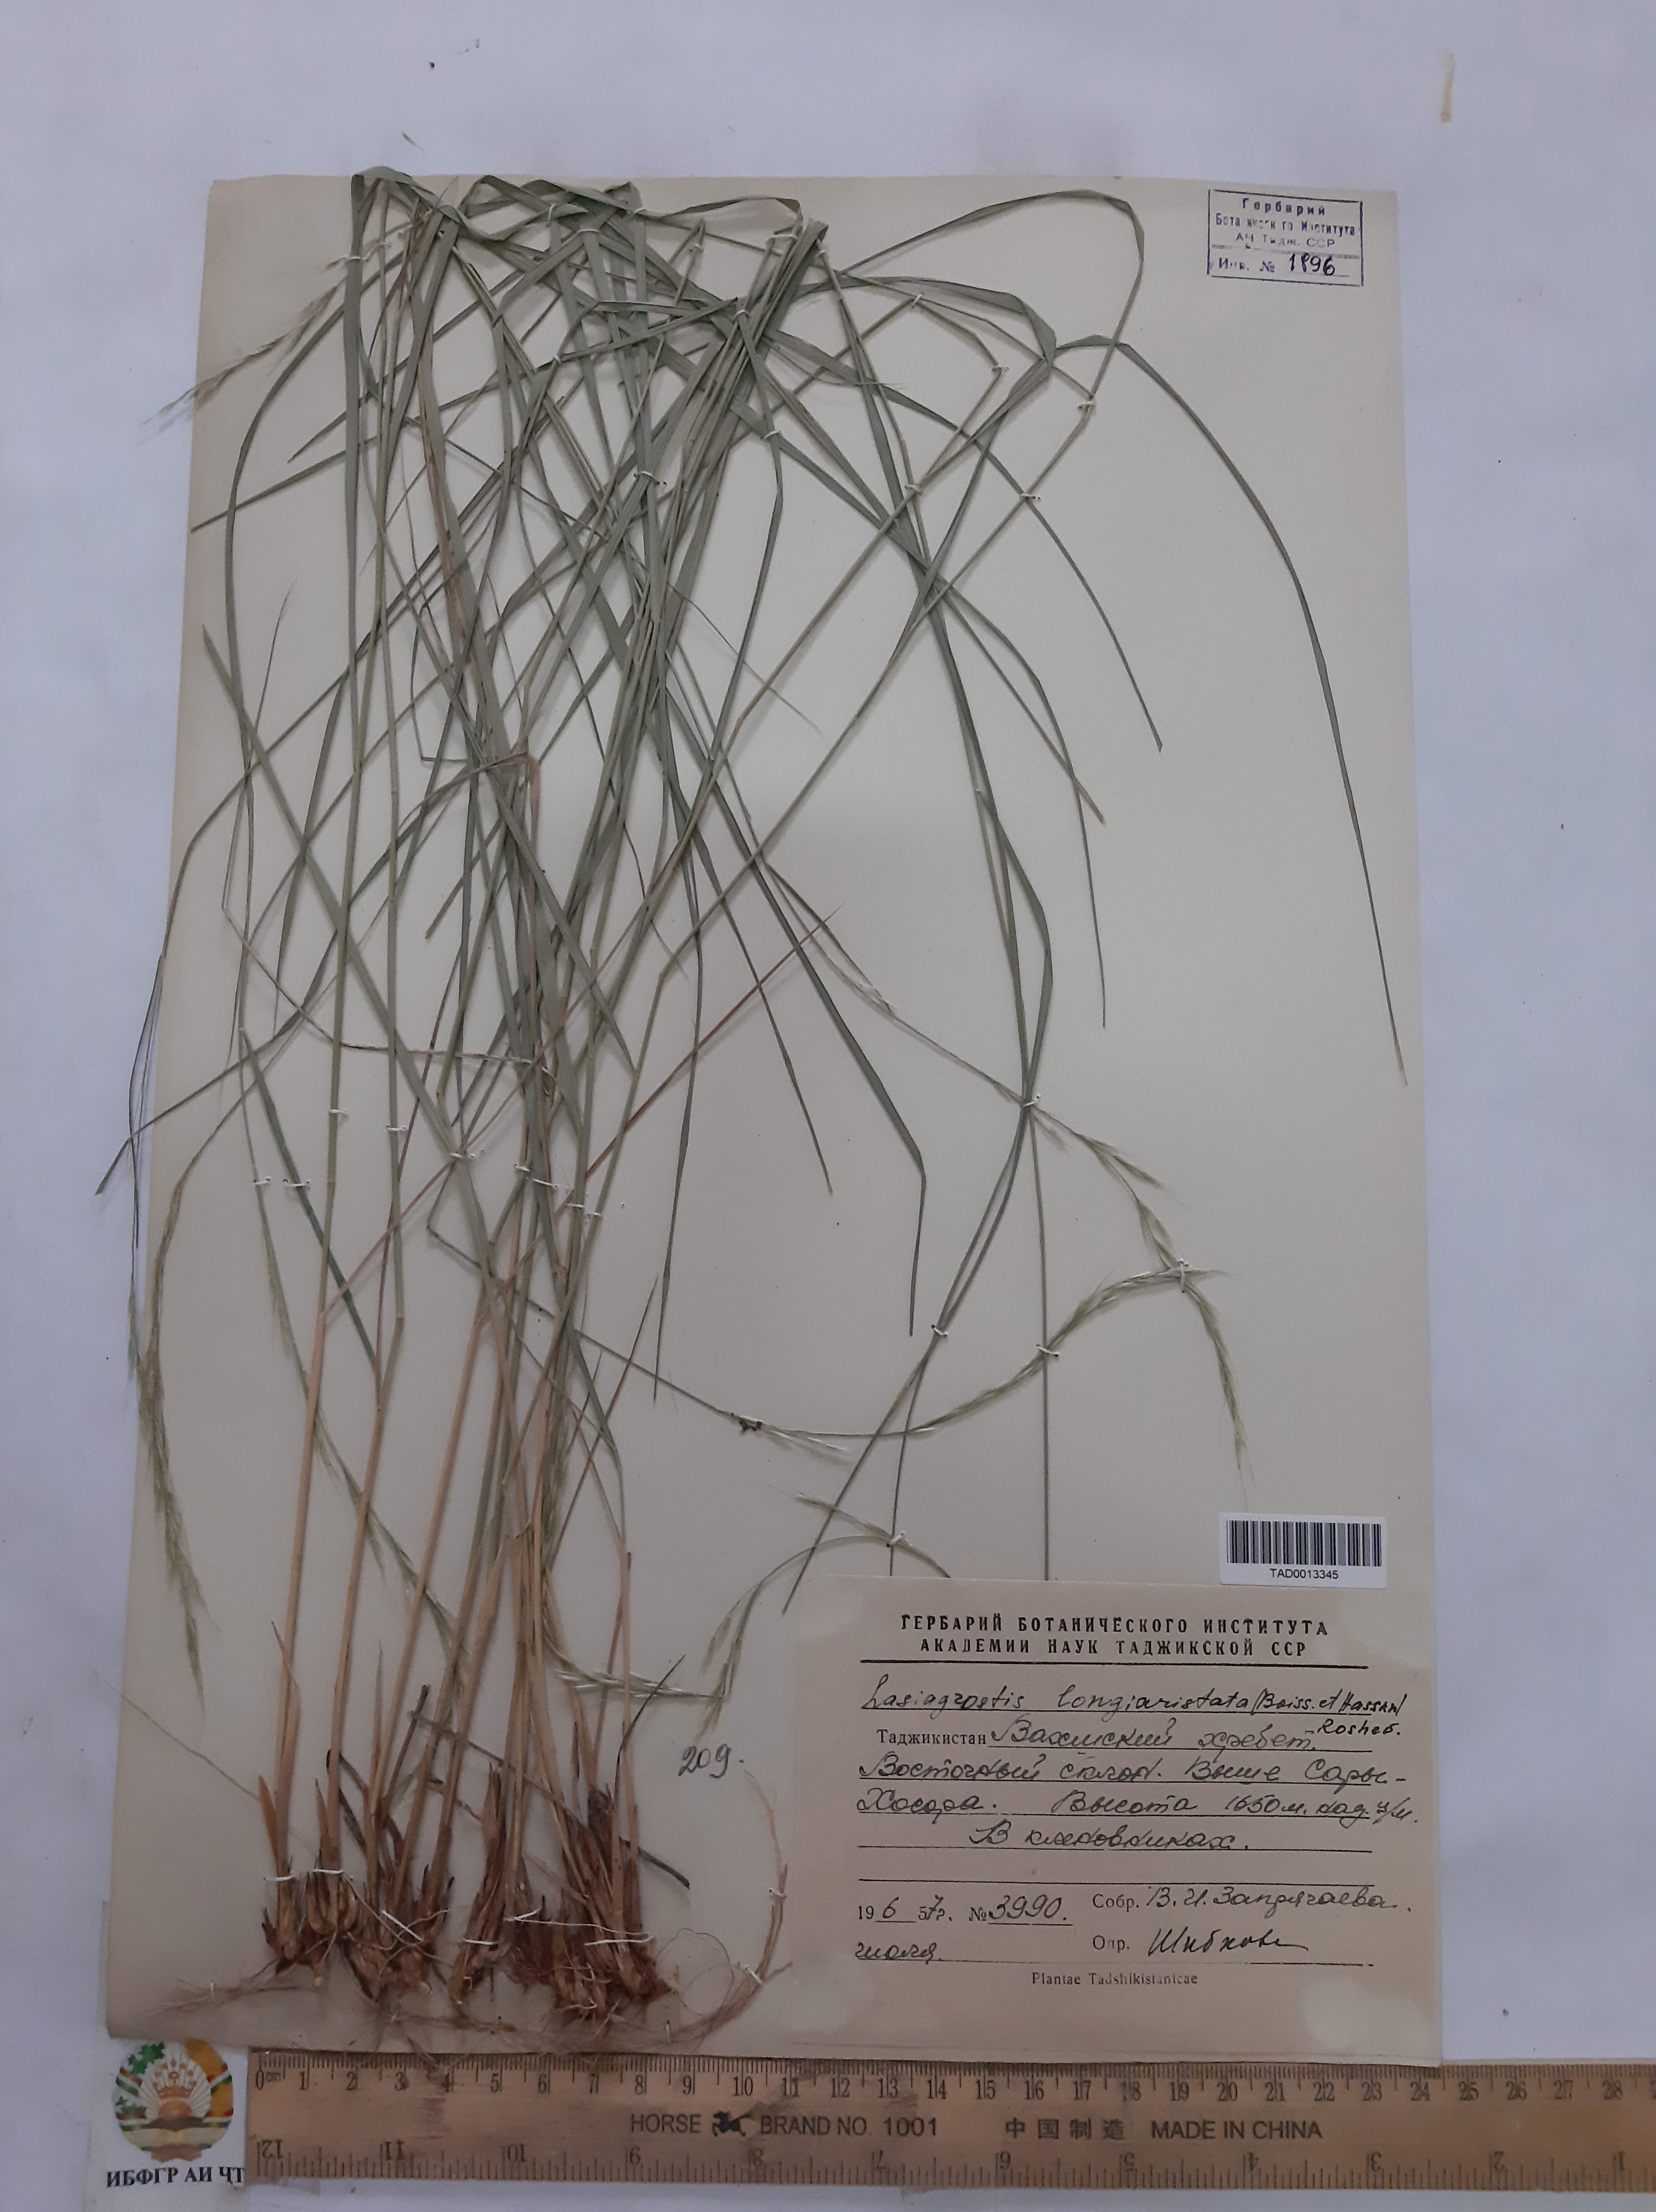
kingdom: Plantae
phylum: Tracheophyta
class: Liliopsida
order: Poales
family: Poaceae
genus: Achnatherum
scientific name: Achnatherum turcomanicum
